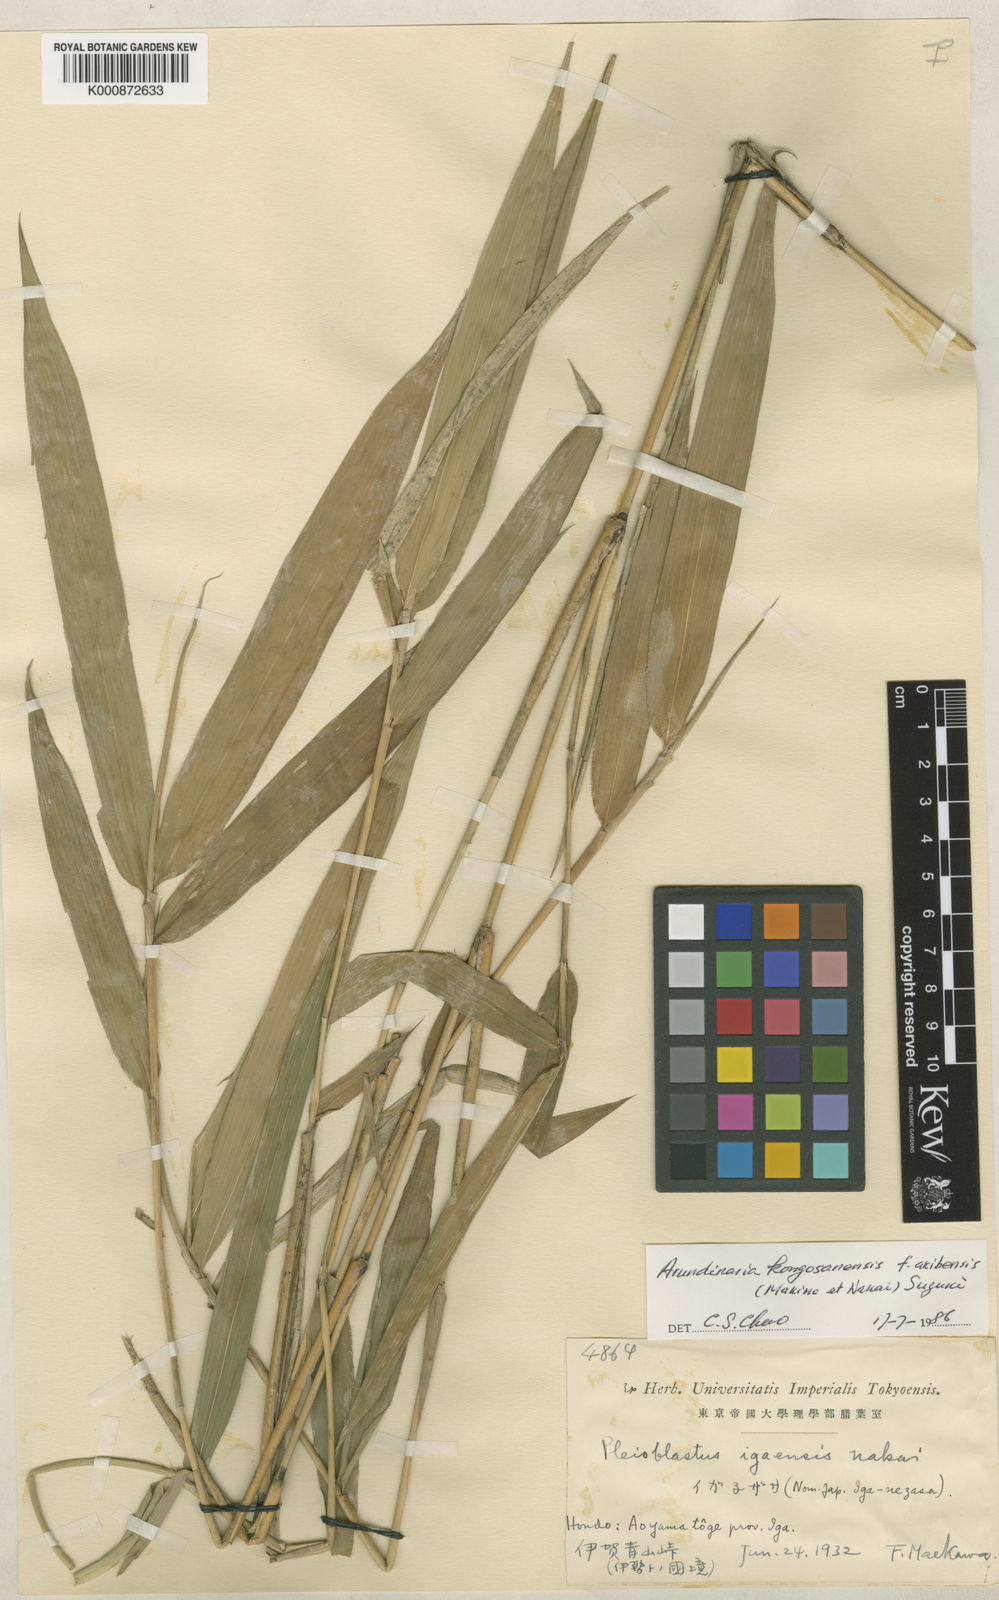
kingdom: Plantae
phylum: Tracheophyta
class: Liliopsida
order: Poales
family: Poaceae
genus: Pleioblastus
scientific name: Pleioblastus viridistriatus
